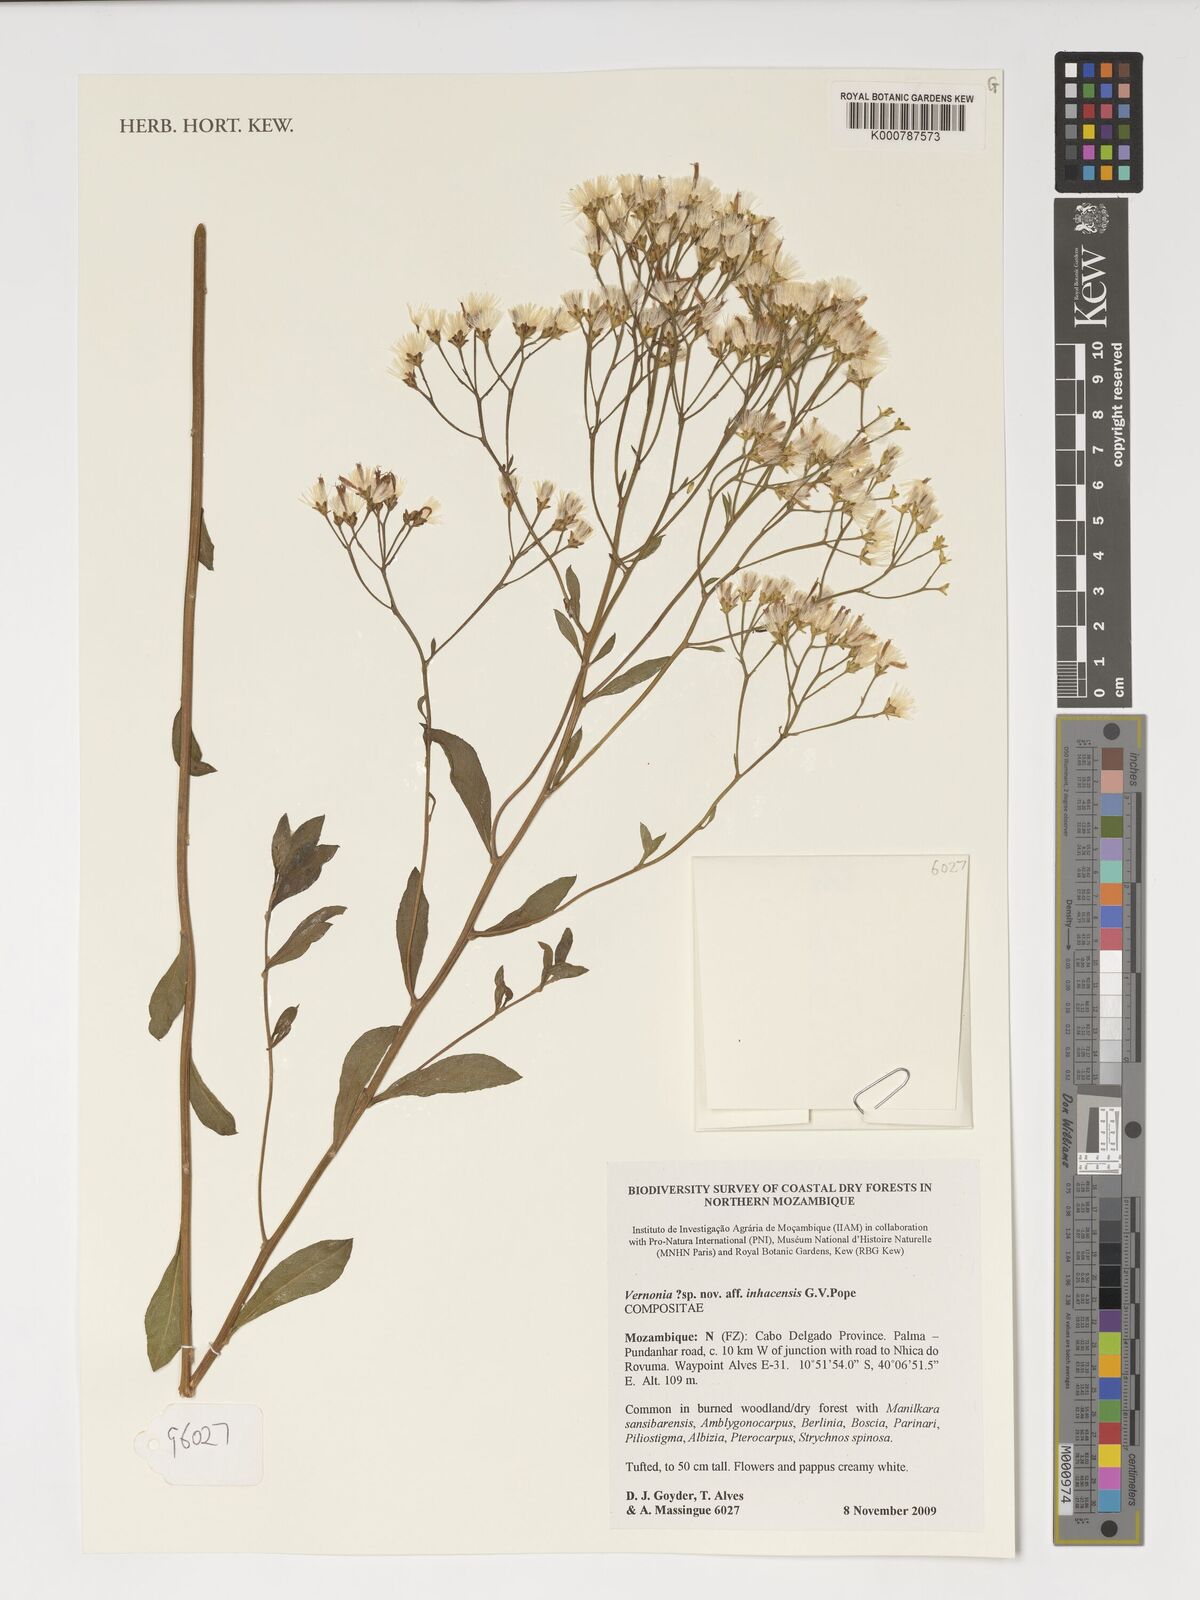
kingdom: Plantae
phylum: Tracheophyta
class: Magnoliopsida
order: Asterales
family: Asteraceae
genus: Distephanus
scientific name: Distephanus inhacensis
